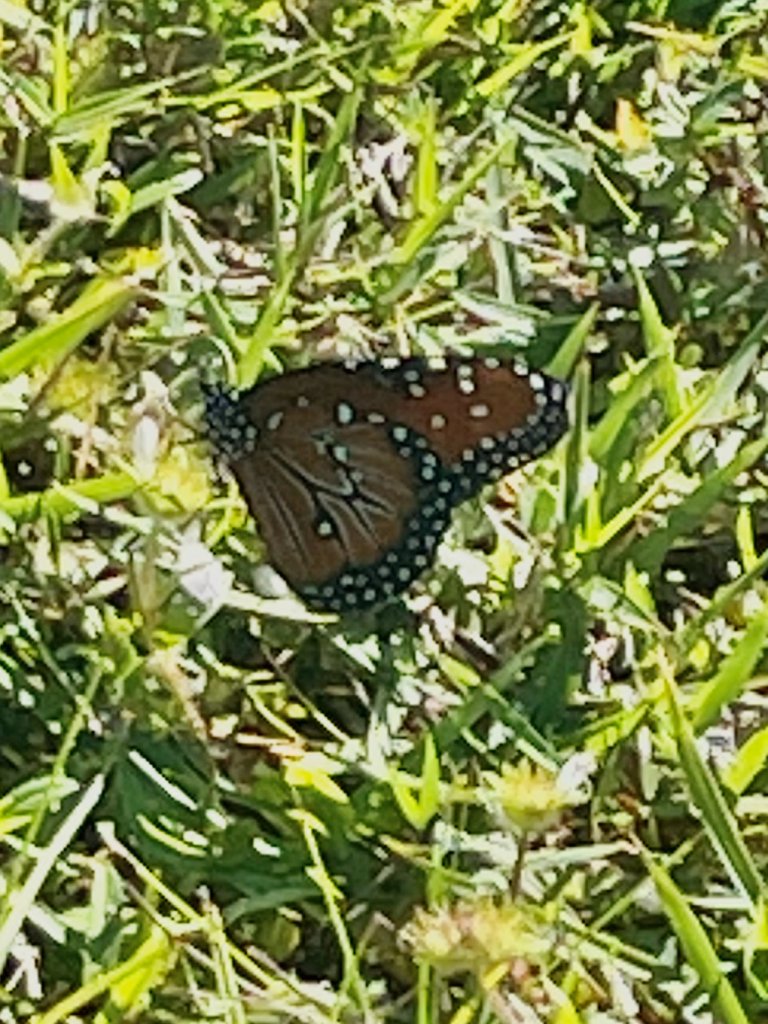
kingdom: Animalia
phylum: Arthropoda
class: Insecta
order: Lepidoptera
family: Nymphalidae
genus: Danaus
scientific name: Danaus gilippus
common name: Queen
